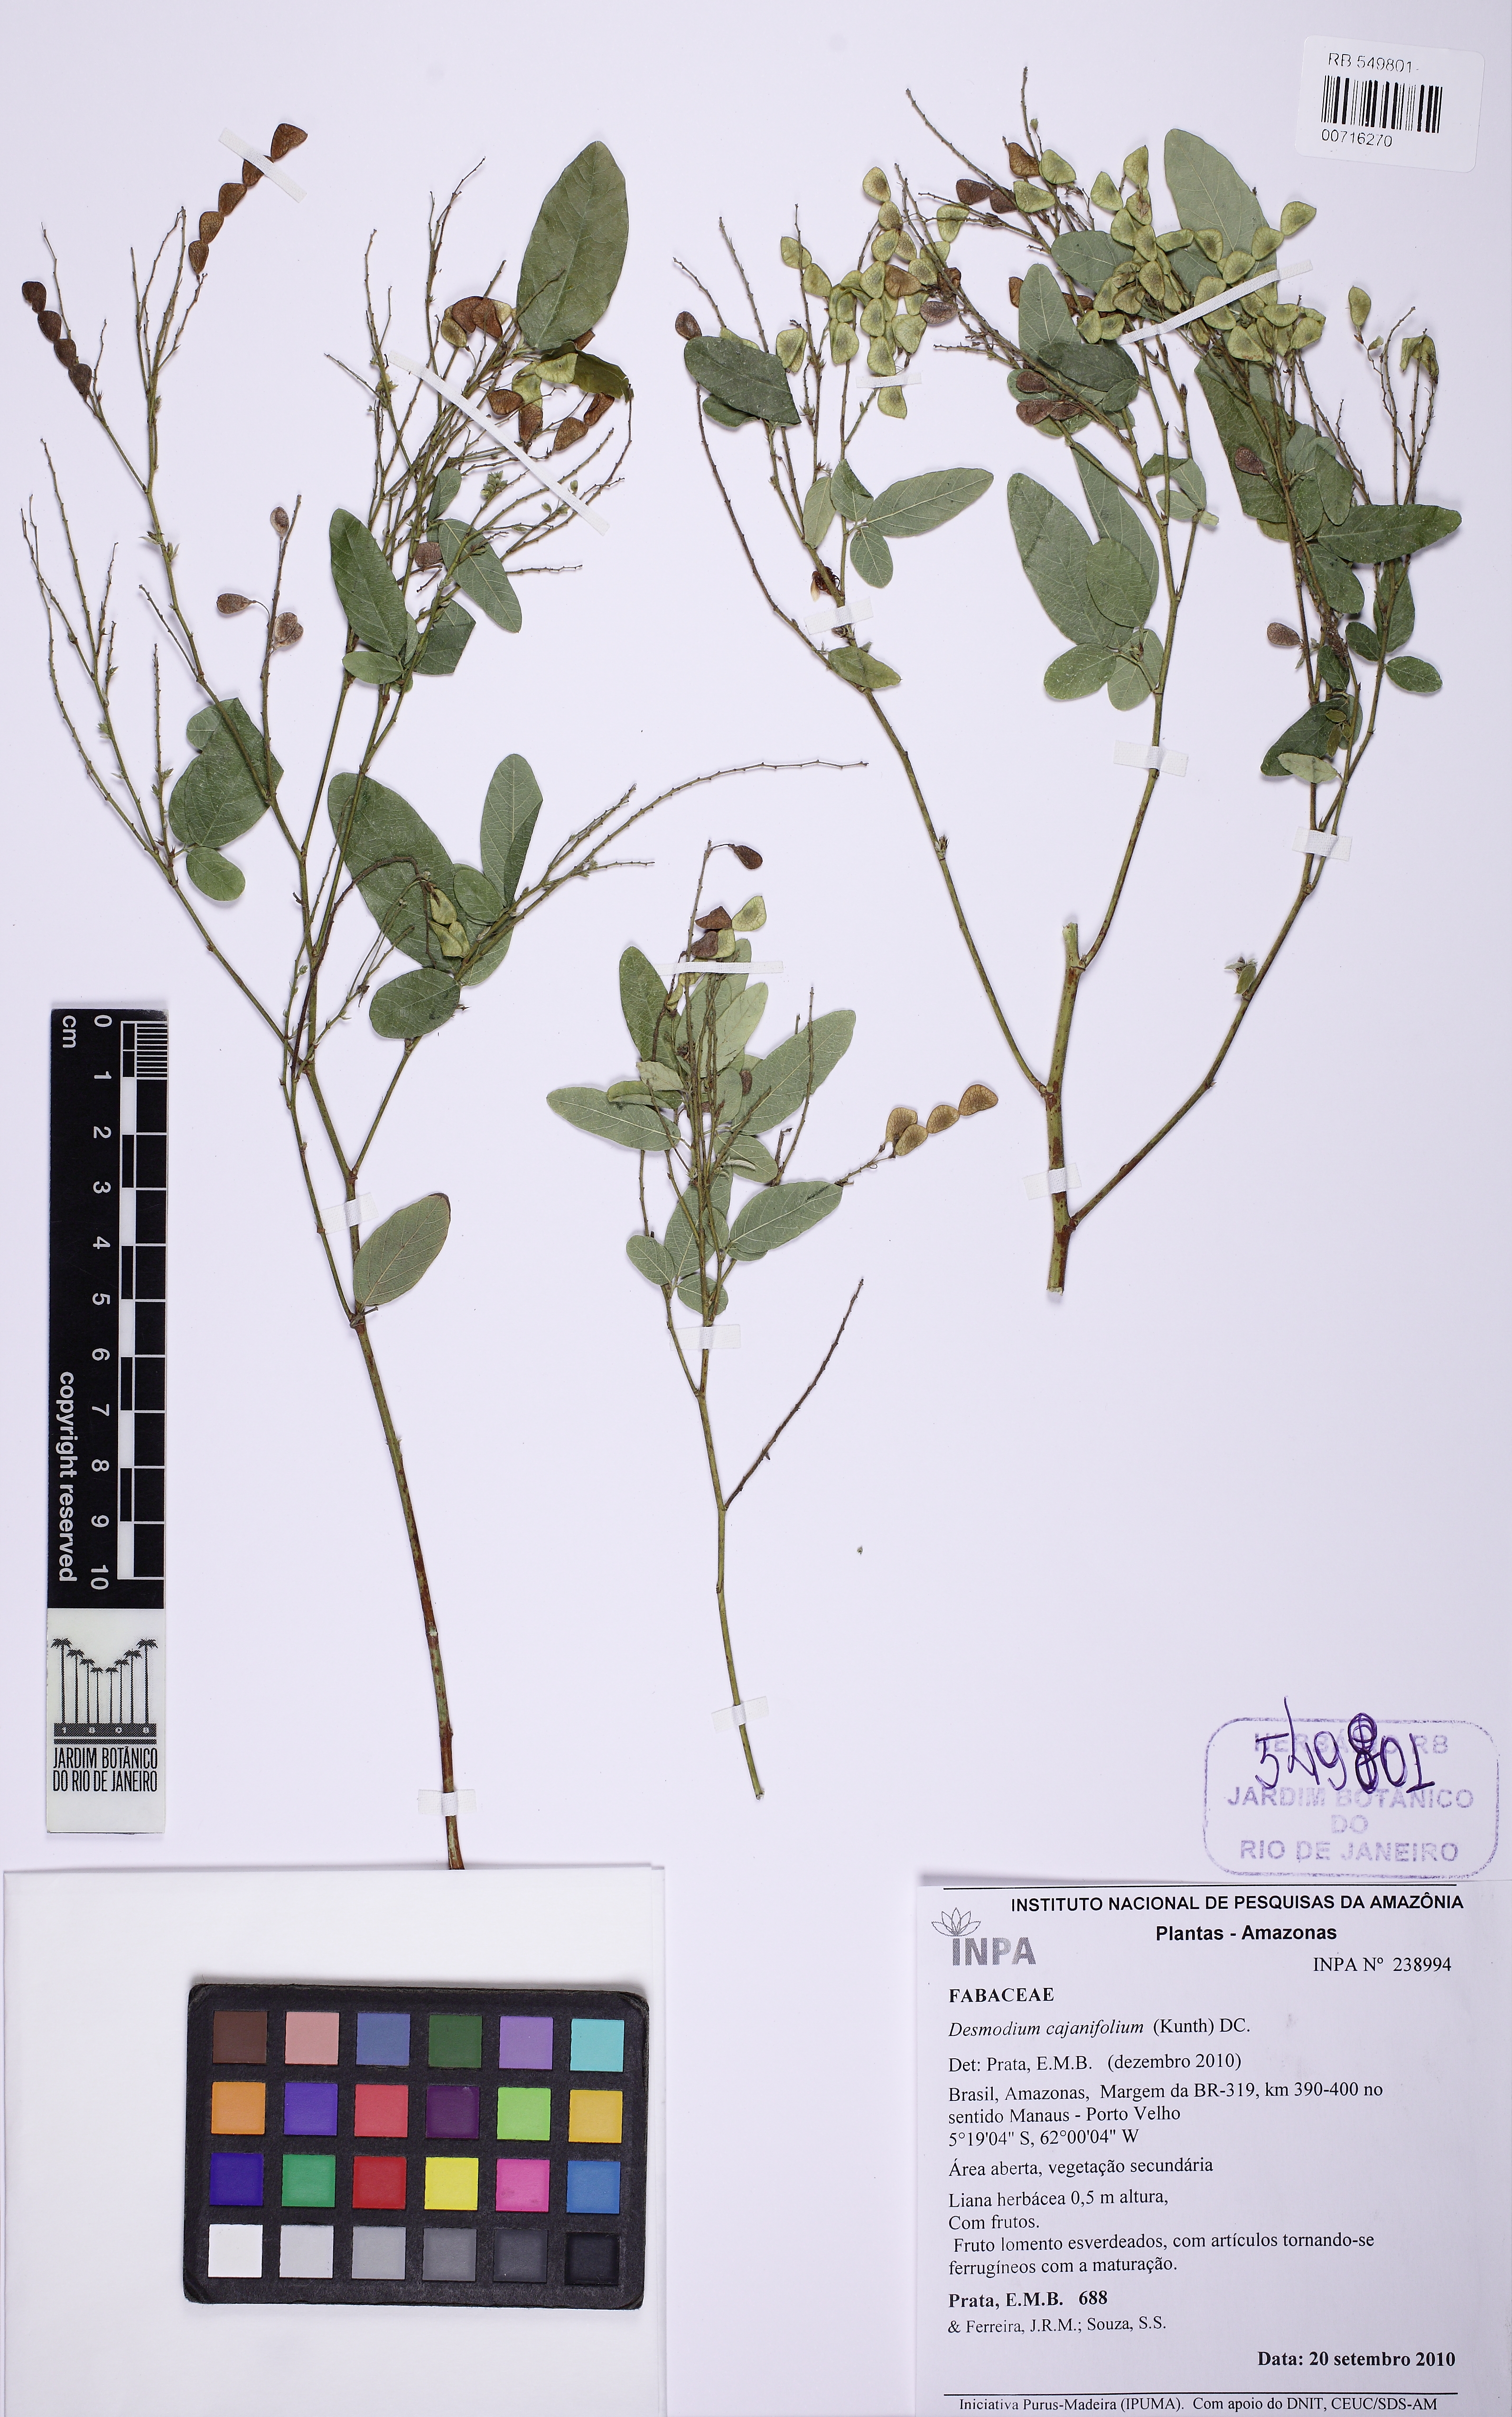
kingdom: Plantae
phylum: Tracheophyta
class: Magnoliopsida
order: Fabales
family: Fabaceae
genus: Desmodium
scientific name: Desmodium cajanifolium
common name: Tropical ticktrefoil
